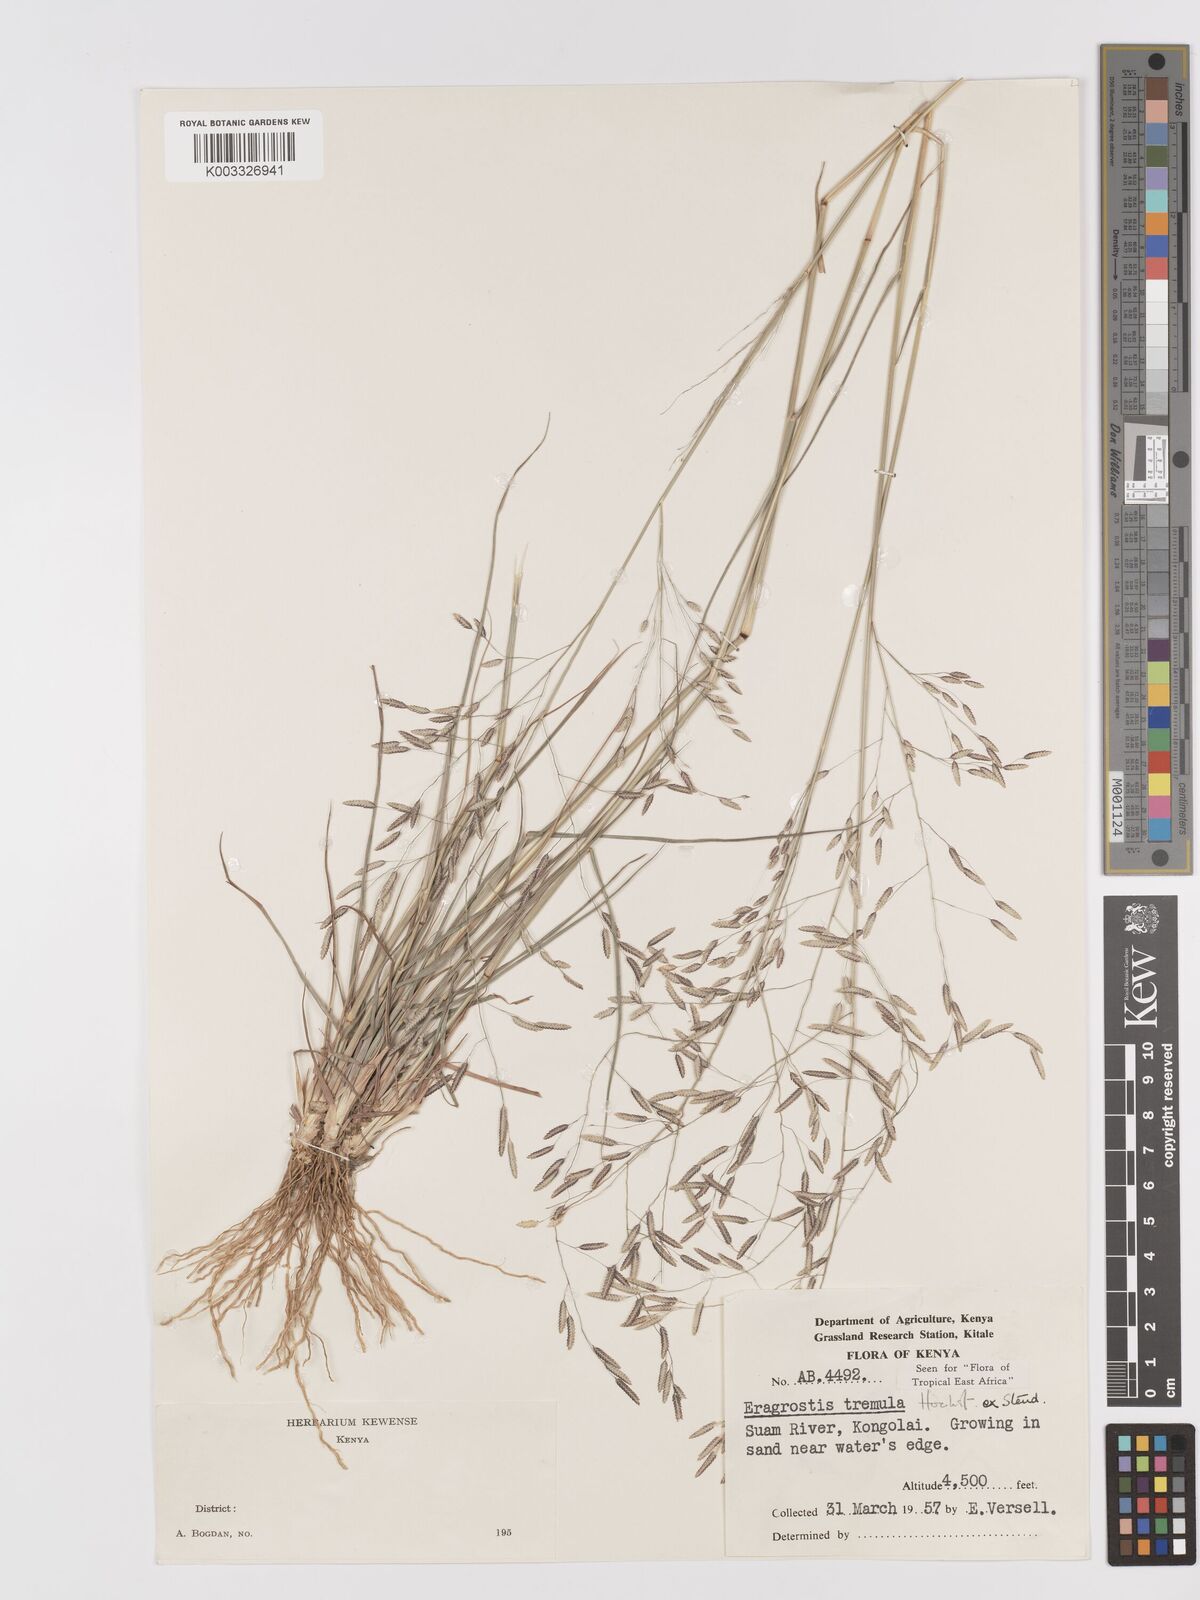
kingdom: Plantae
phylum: Tracheophyta
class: Liliopsida
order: Poales
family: Poaceae
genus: Eragrostis
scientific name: Eragrostis tremula
